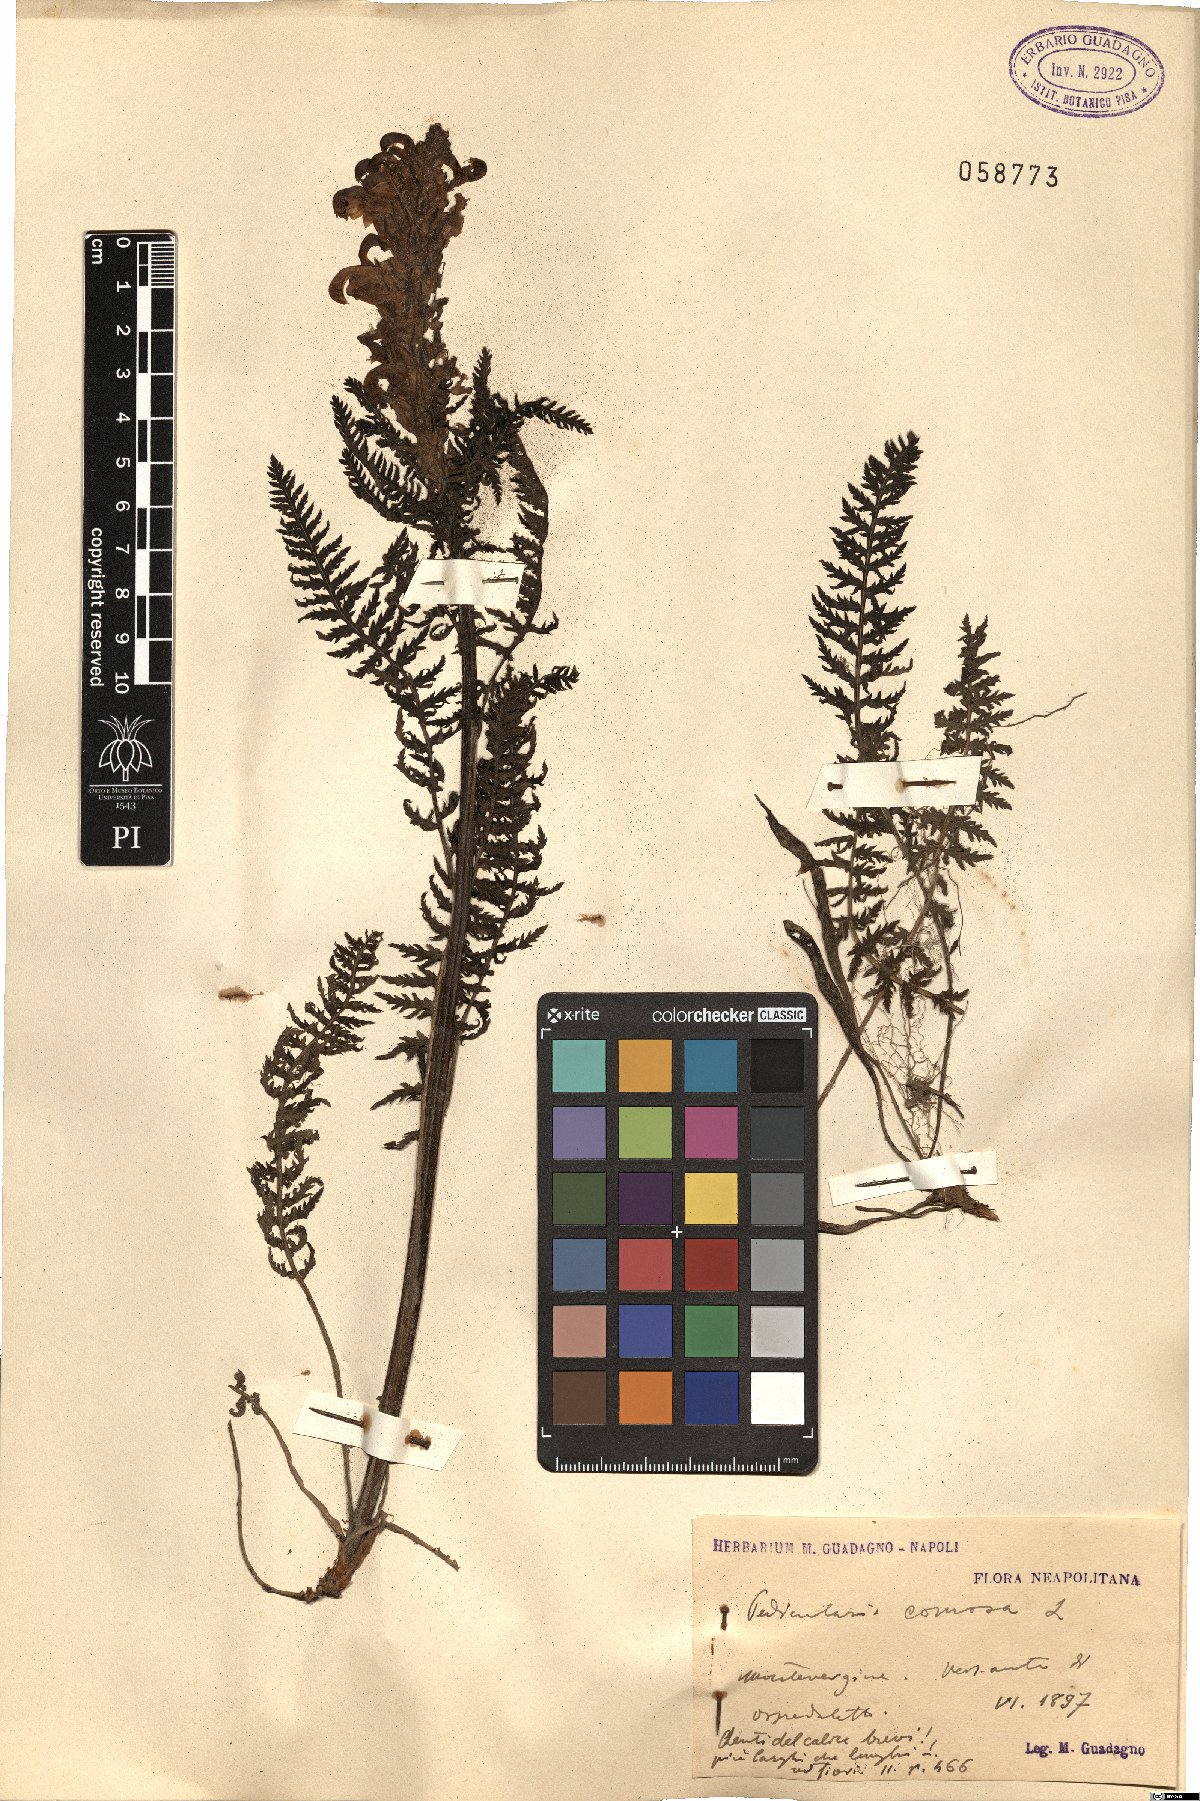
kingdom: Plantae
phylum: Tracheophyta
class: Magnoliopsida
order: Lamiales
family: Orobanchaceae
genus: Pedicularis
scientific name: Pedicularis comosa
